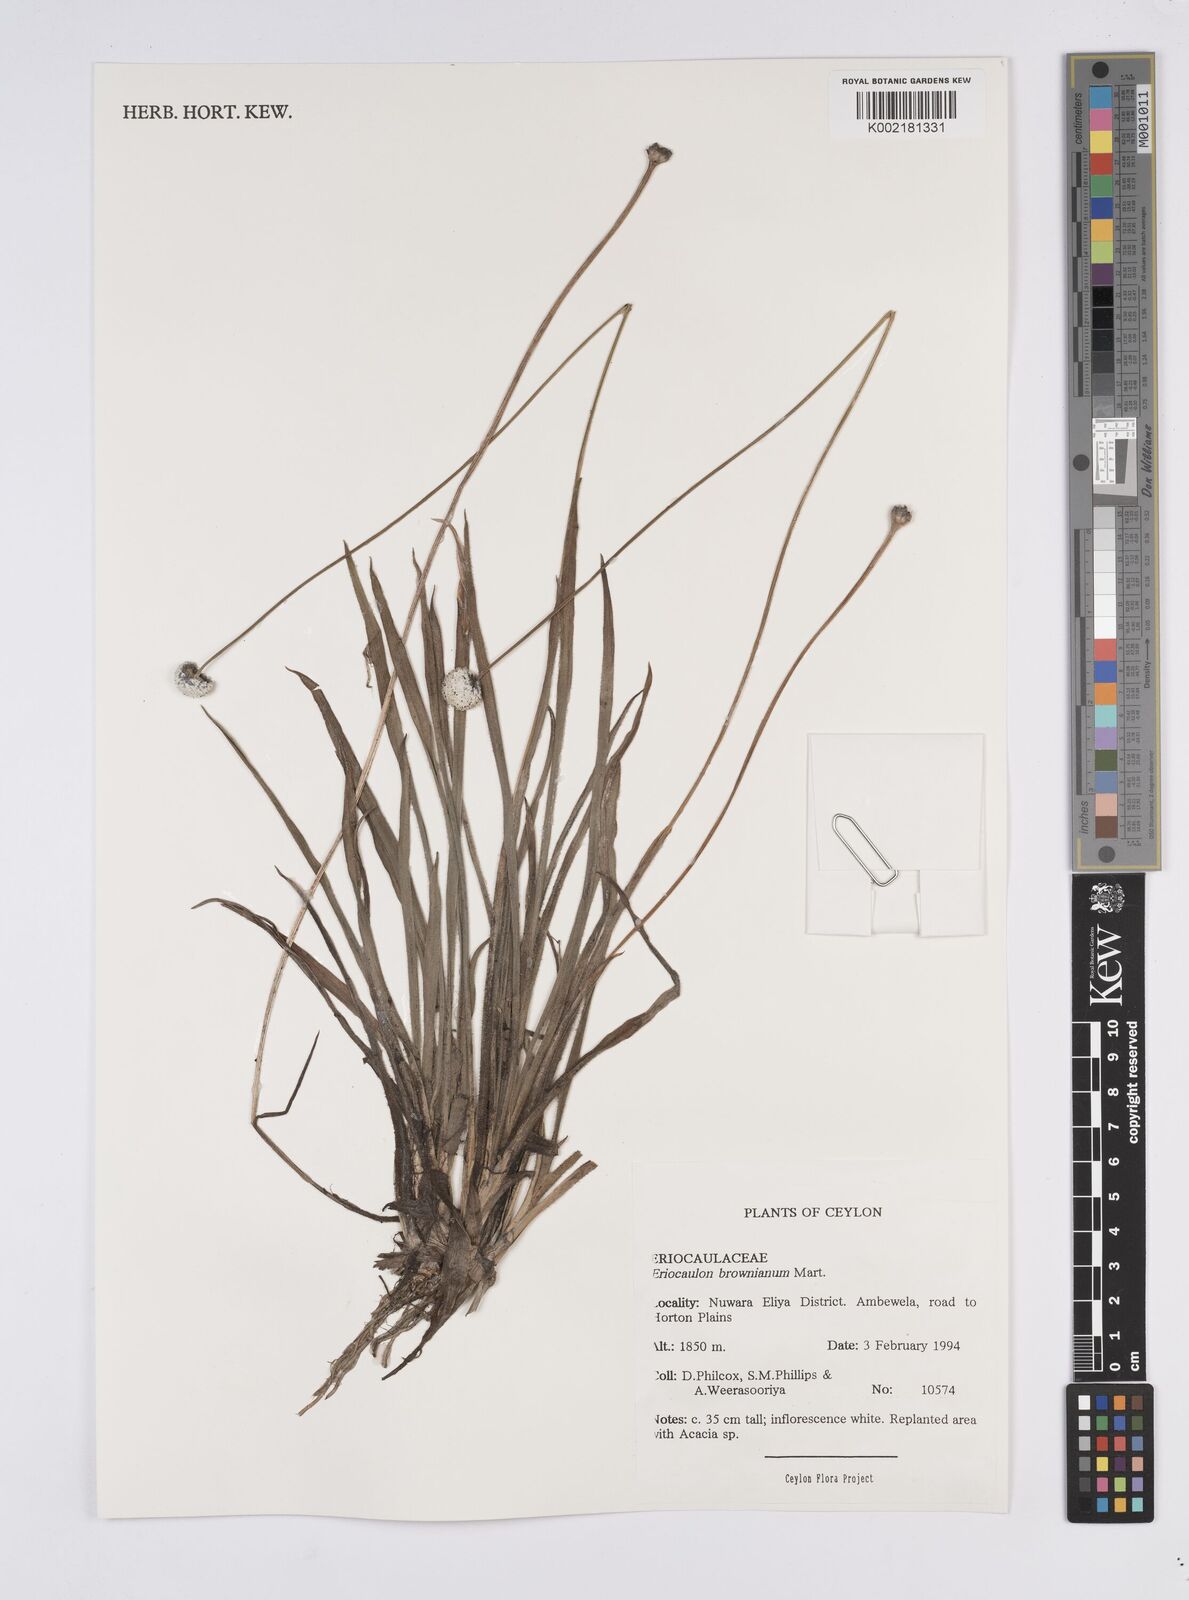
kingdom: Plantae
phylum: Tracheophyta
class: Liliopsida
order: Poales
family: Eriocaulaceae
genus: Eriocaulon
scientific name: Eriocaulon brownianum
